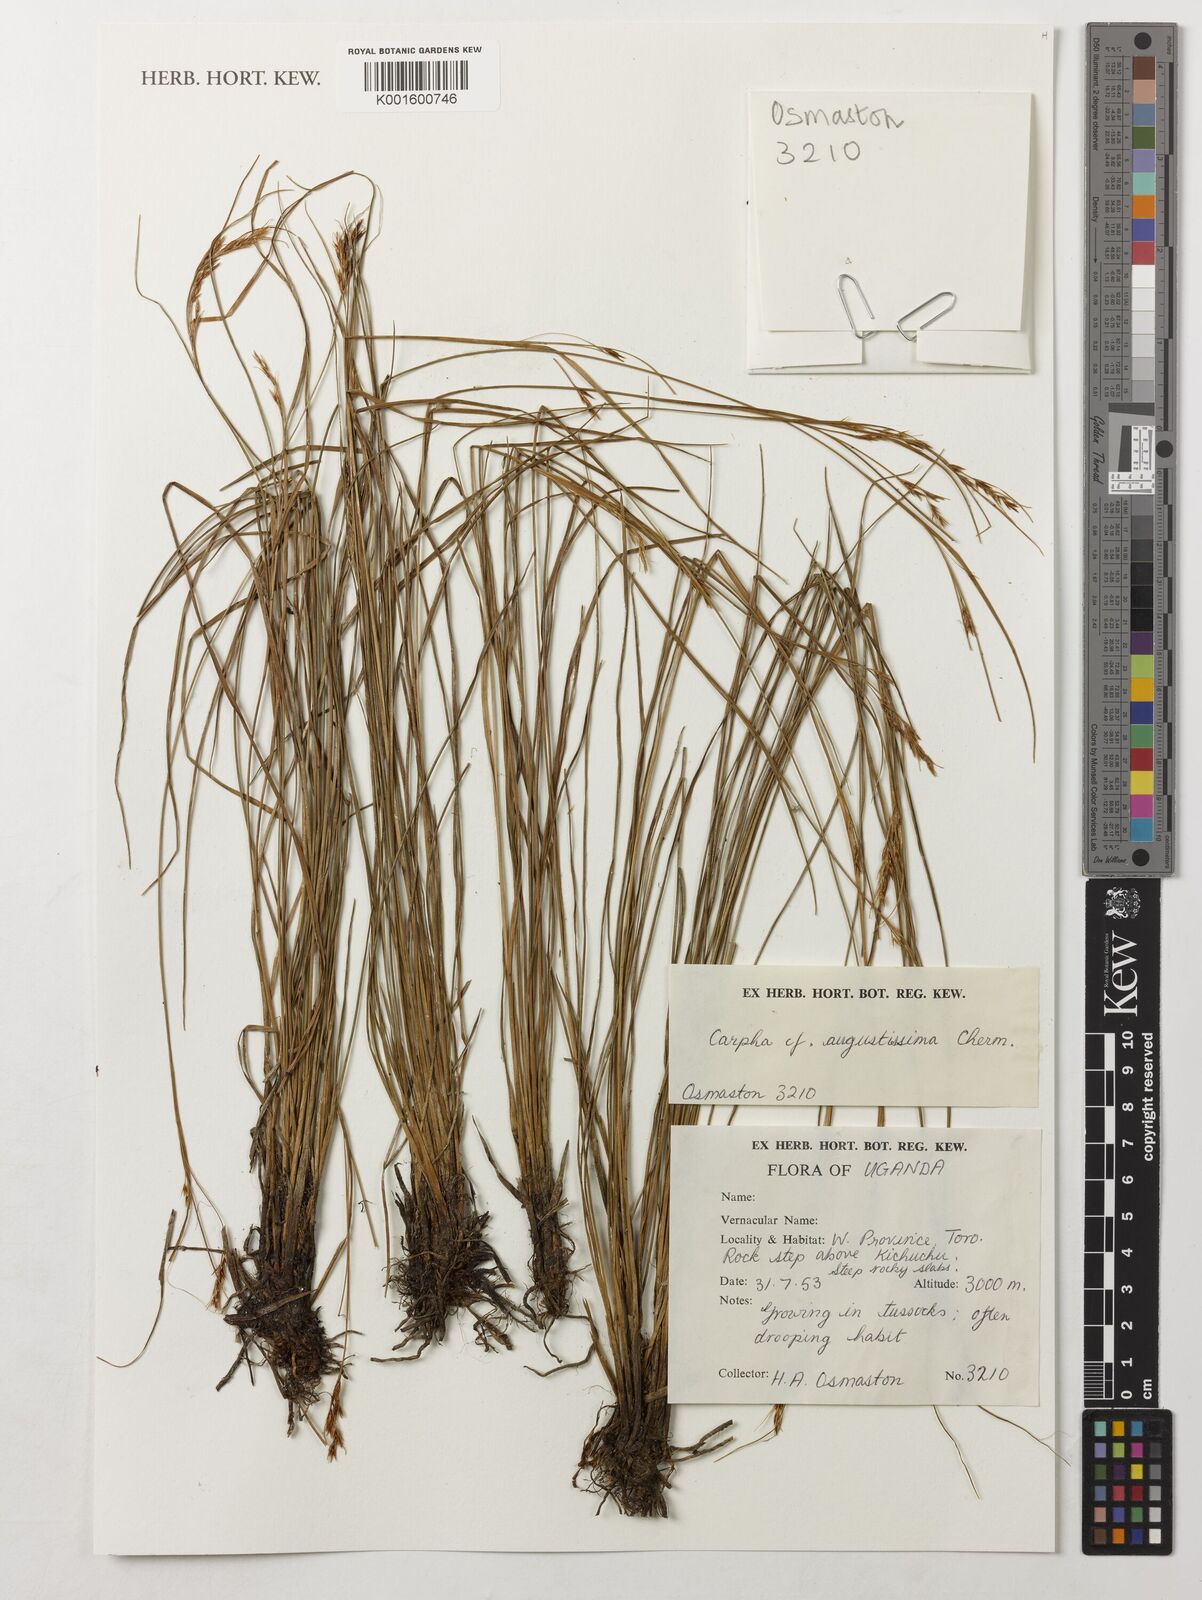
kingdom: Plantae
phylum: Tracheophyta
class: Liliopsida
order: Poales
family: Cyperaceae
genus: Carpha
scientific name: Carpha angustissima
